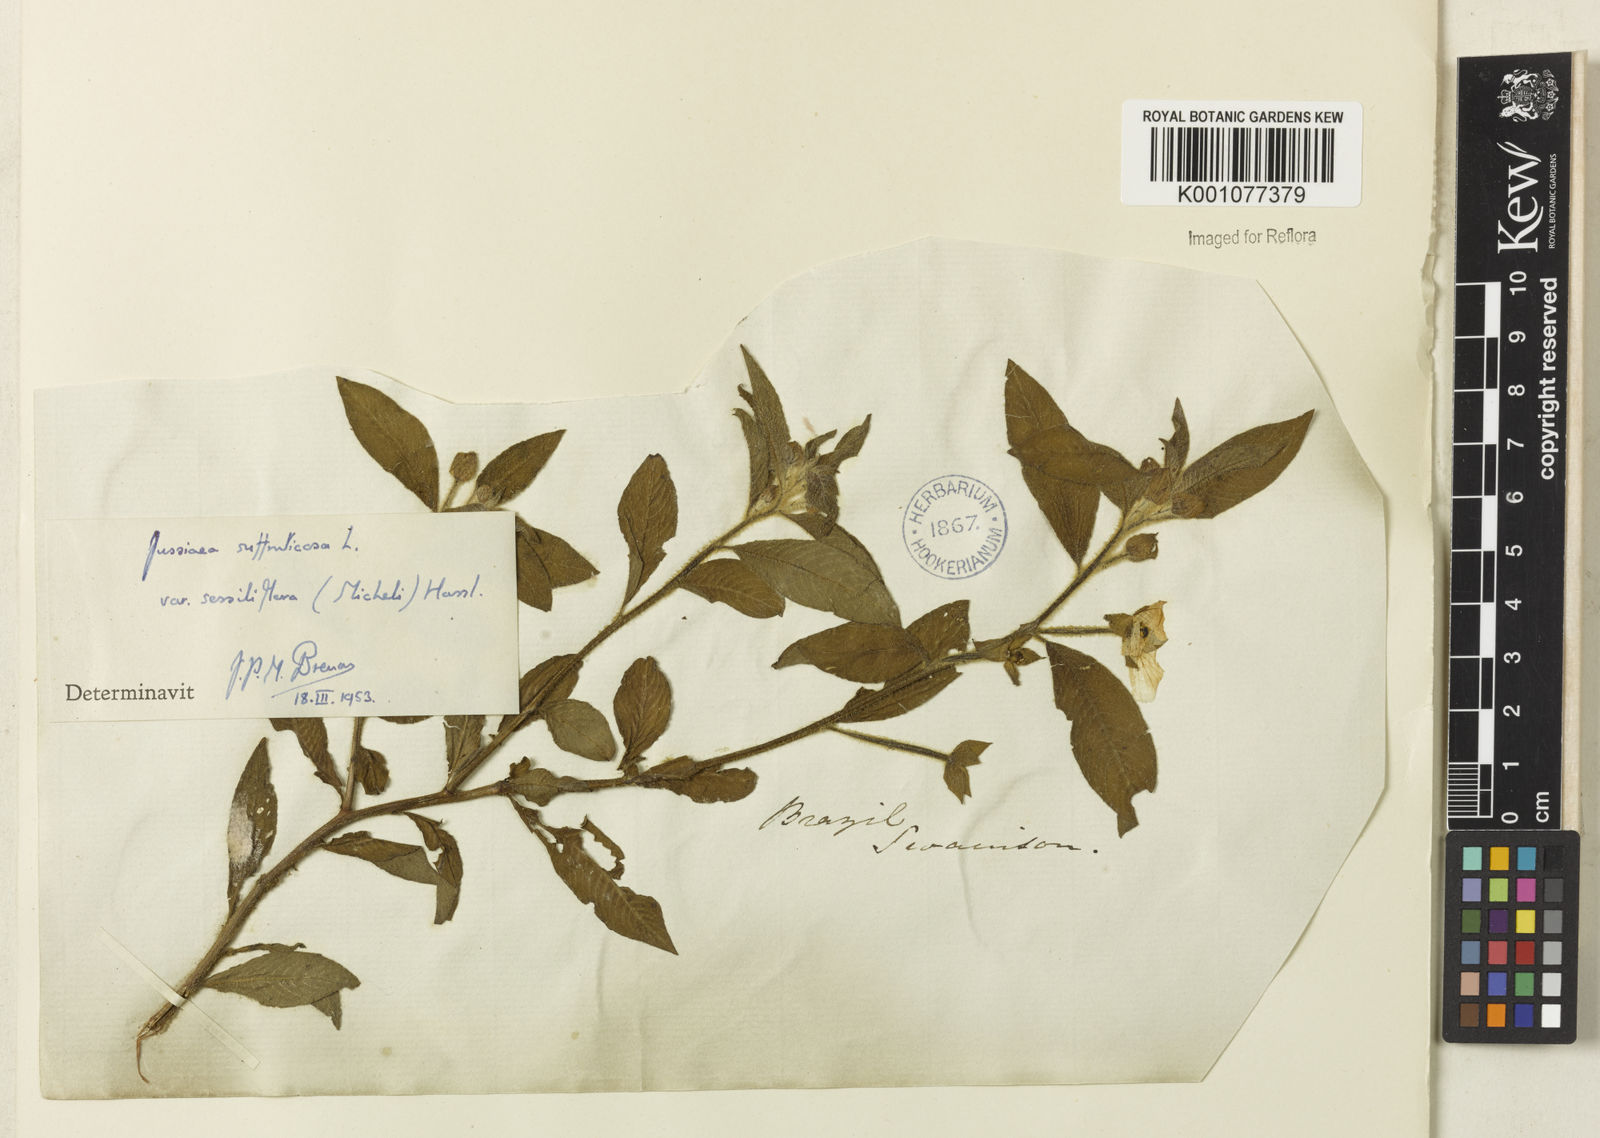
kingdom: Plantae
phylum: Tracheophyta
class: Magnoliopsida
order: Myrtales
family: Onagraceae
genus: Ludwigia
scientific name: Ludwigia octovalvis
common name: Water-primrose
